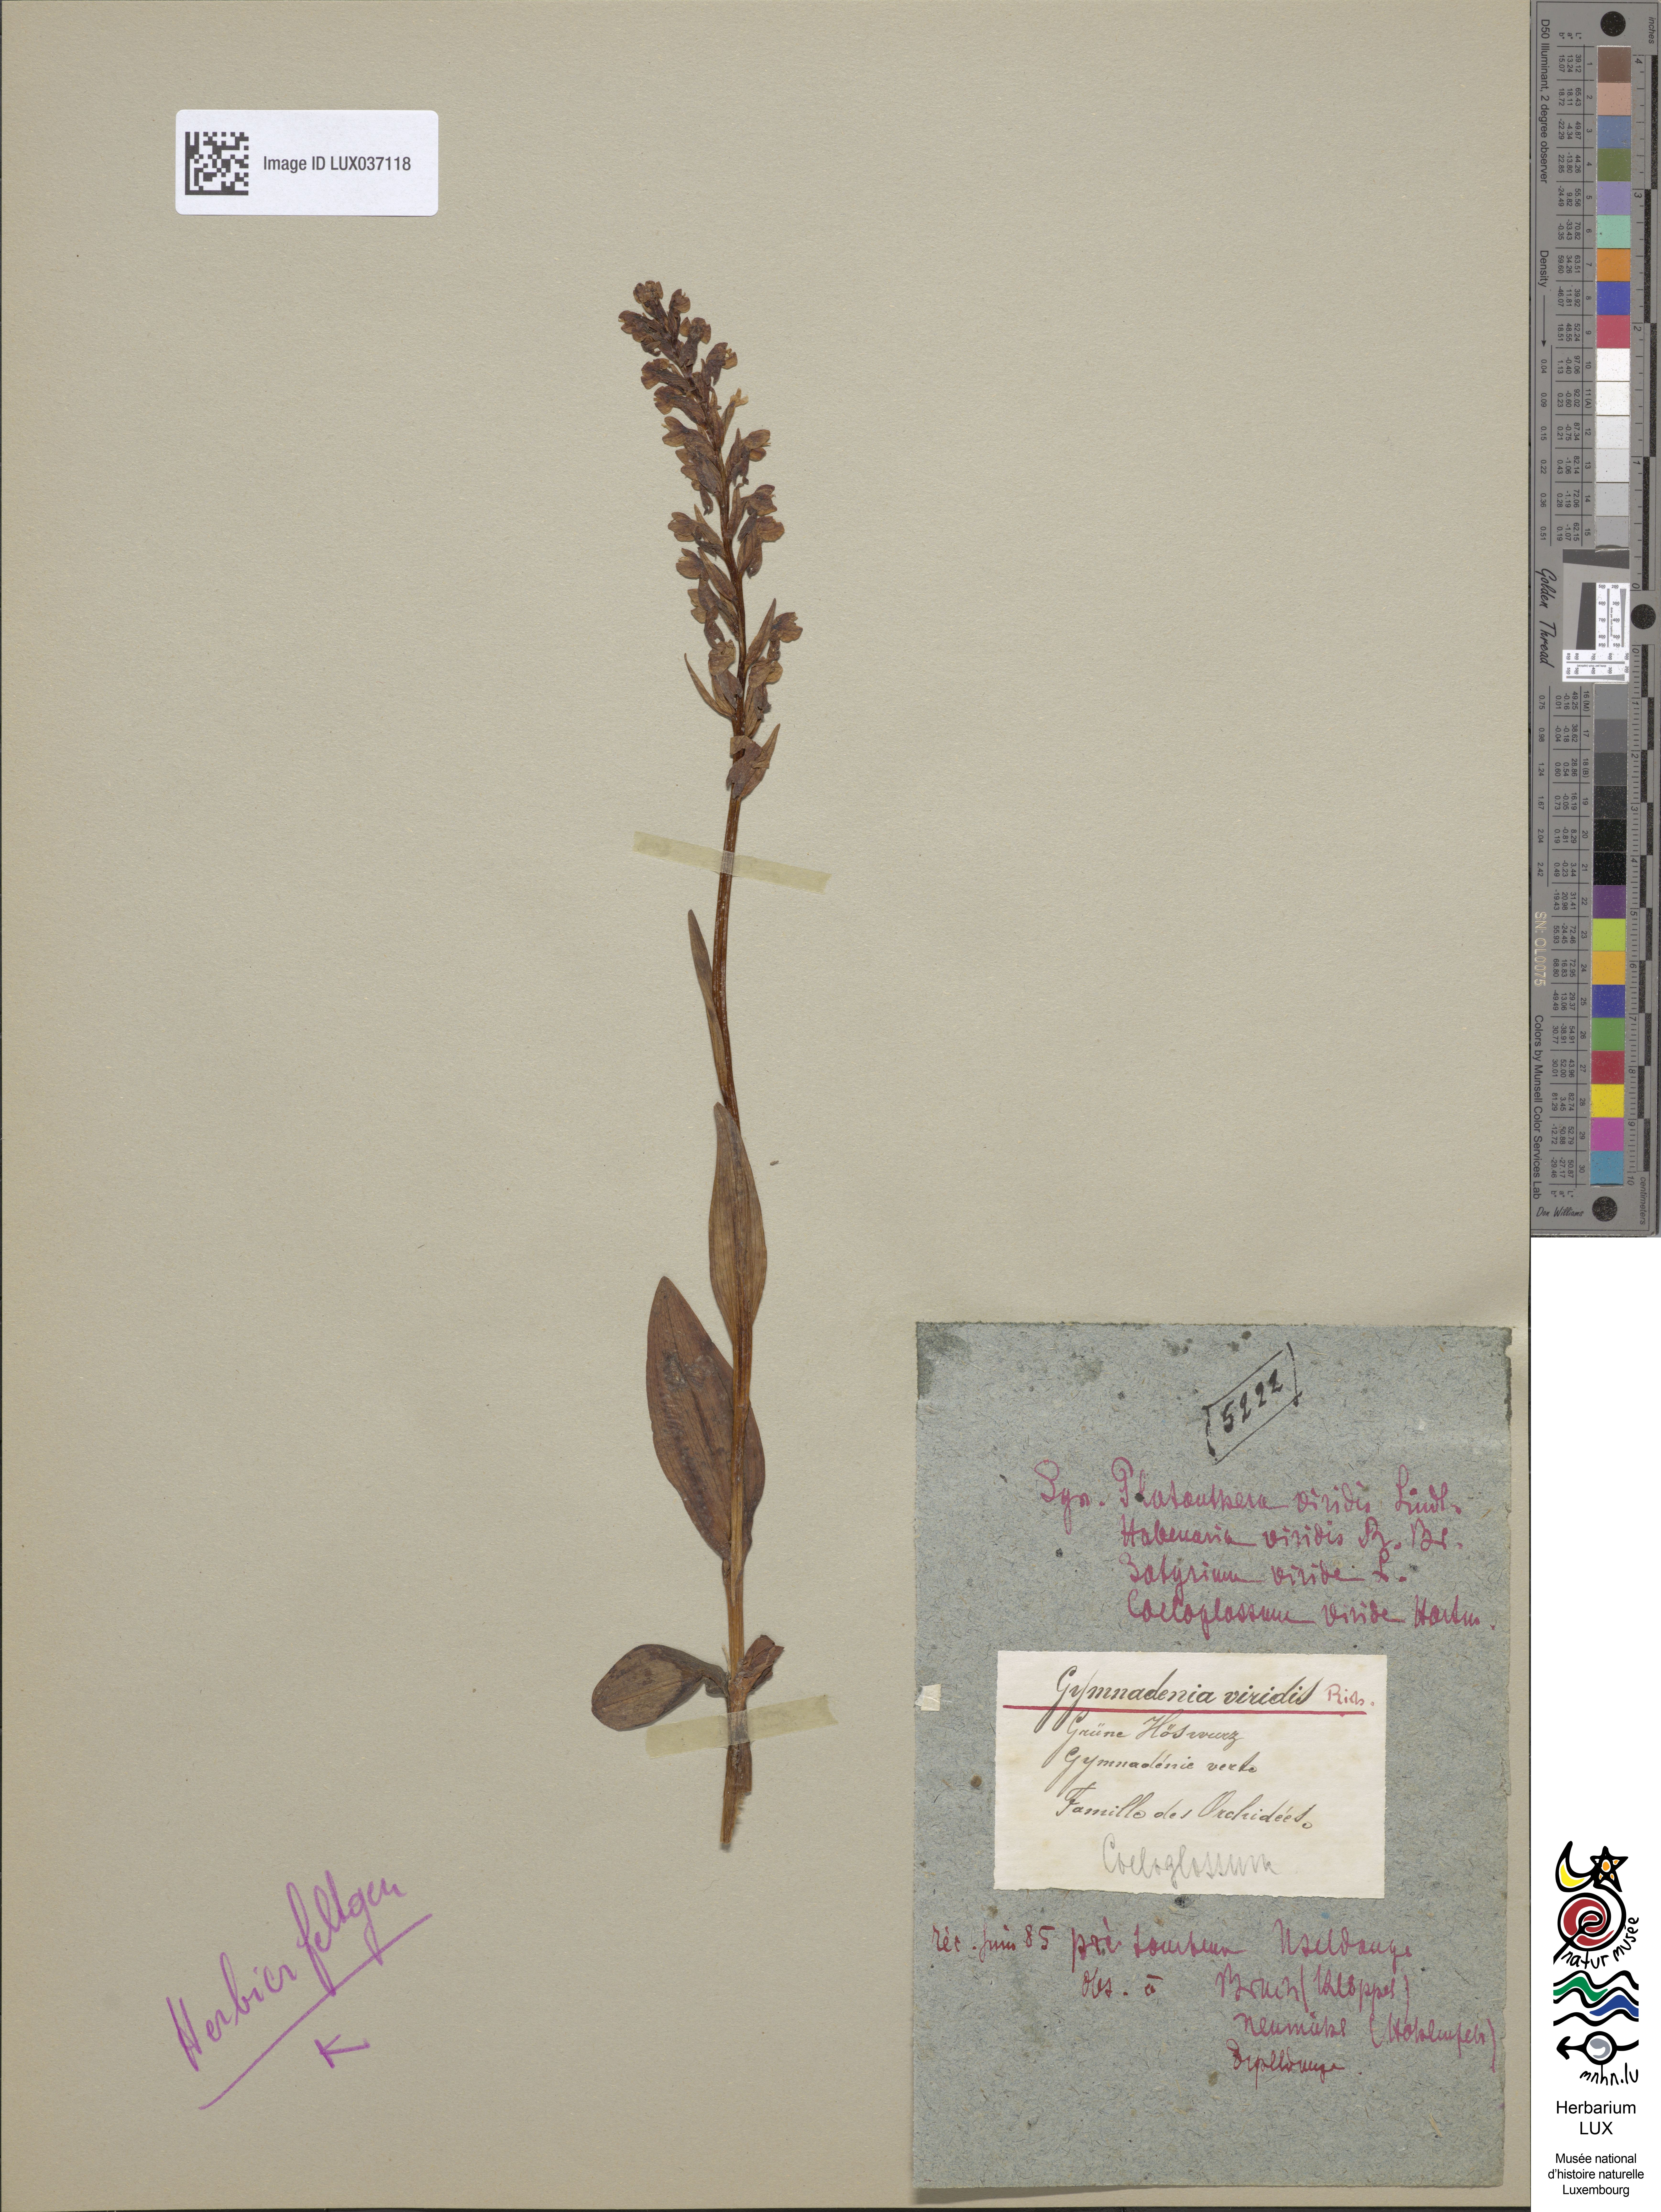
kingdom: Plantae
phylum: Tracheophyta
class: Liliopsida
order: Asparagales
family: Orchidaceae
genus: Dactylorhiza
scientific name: Dactylorhiza viridis
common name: Longbract frog orchid
